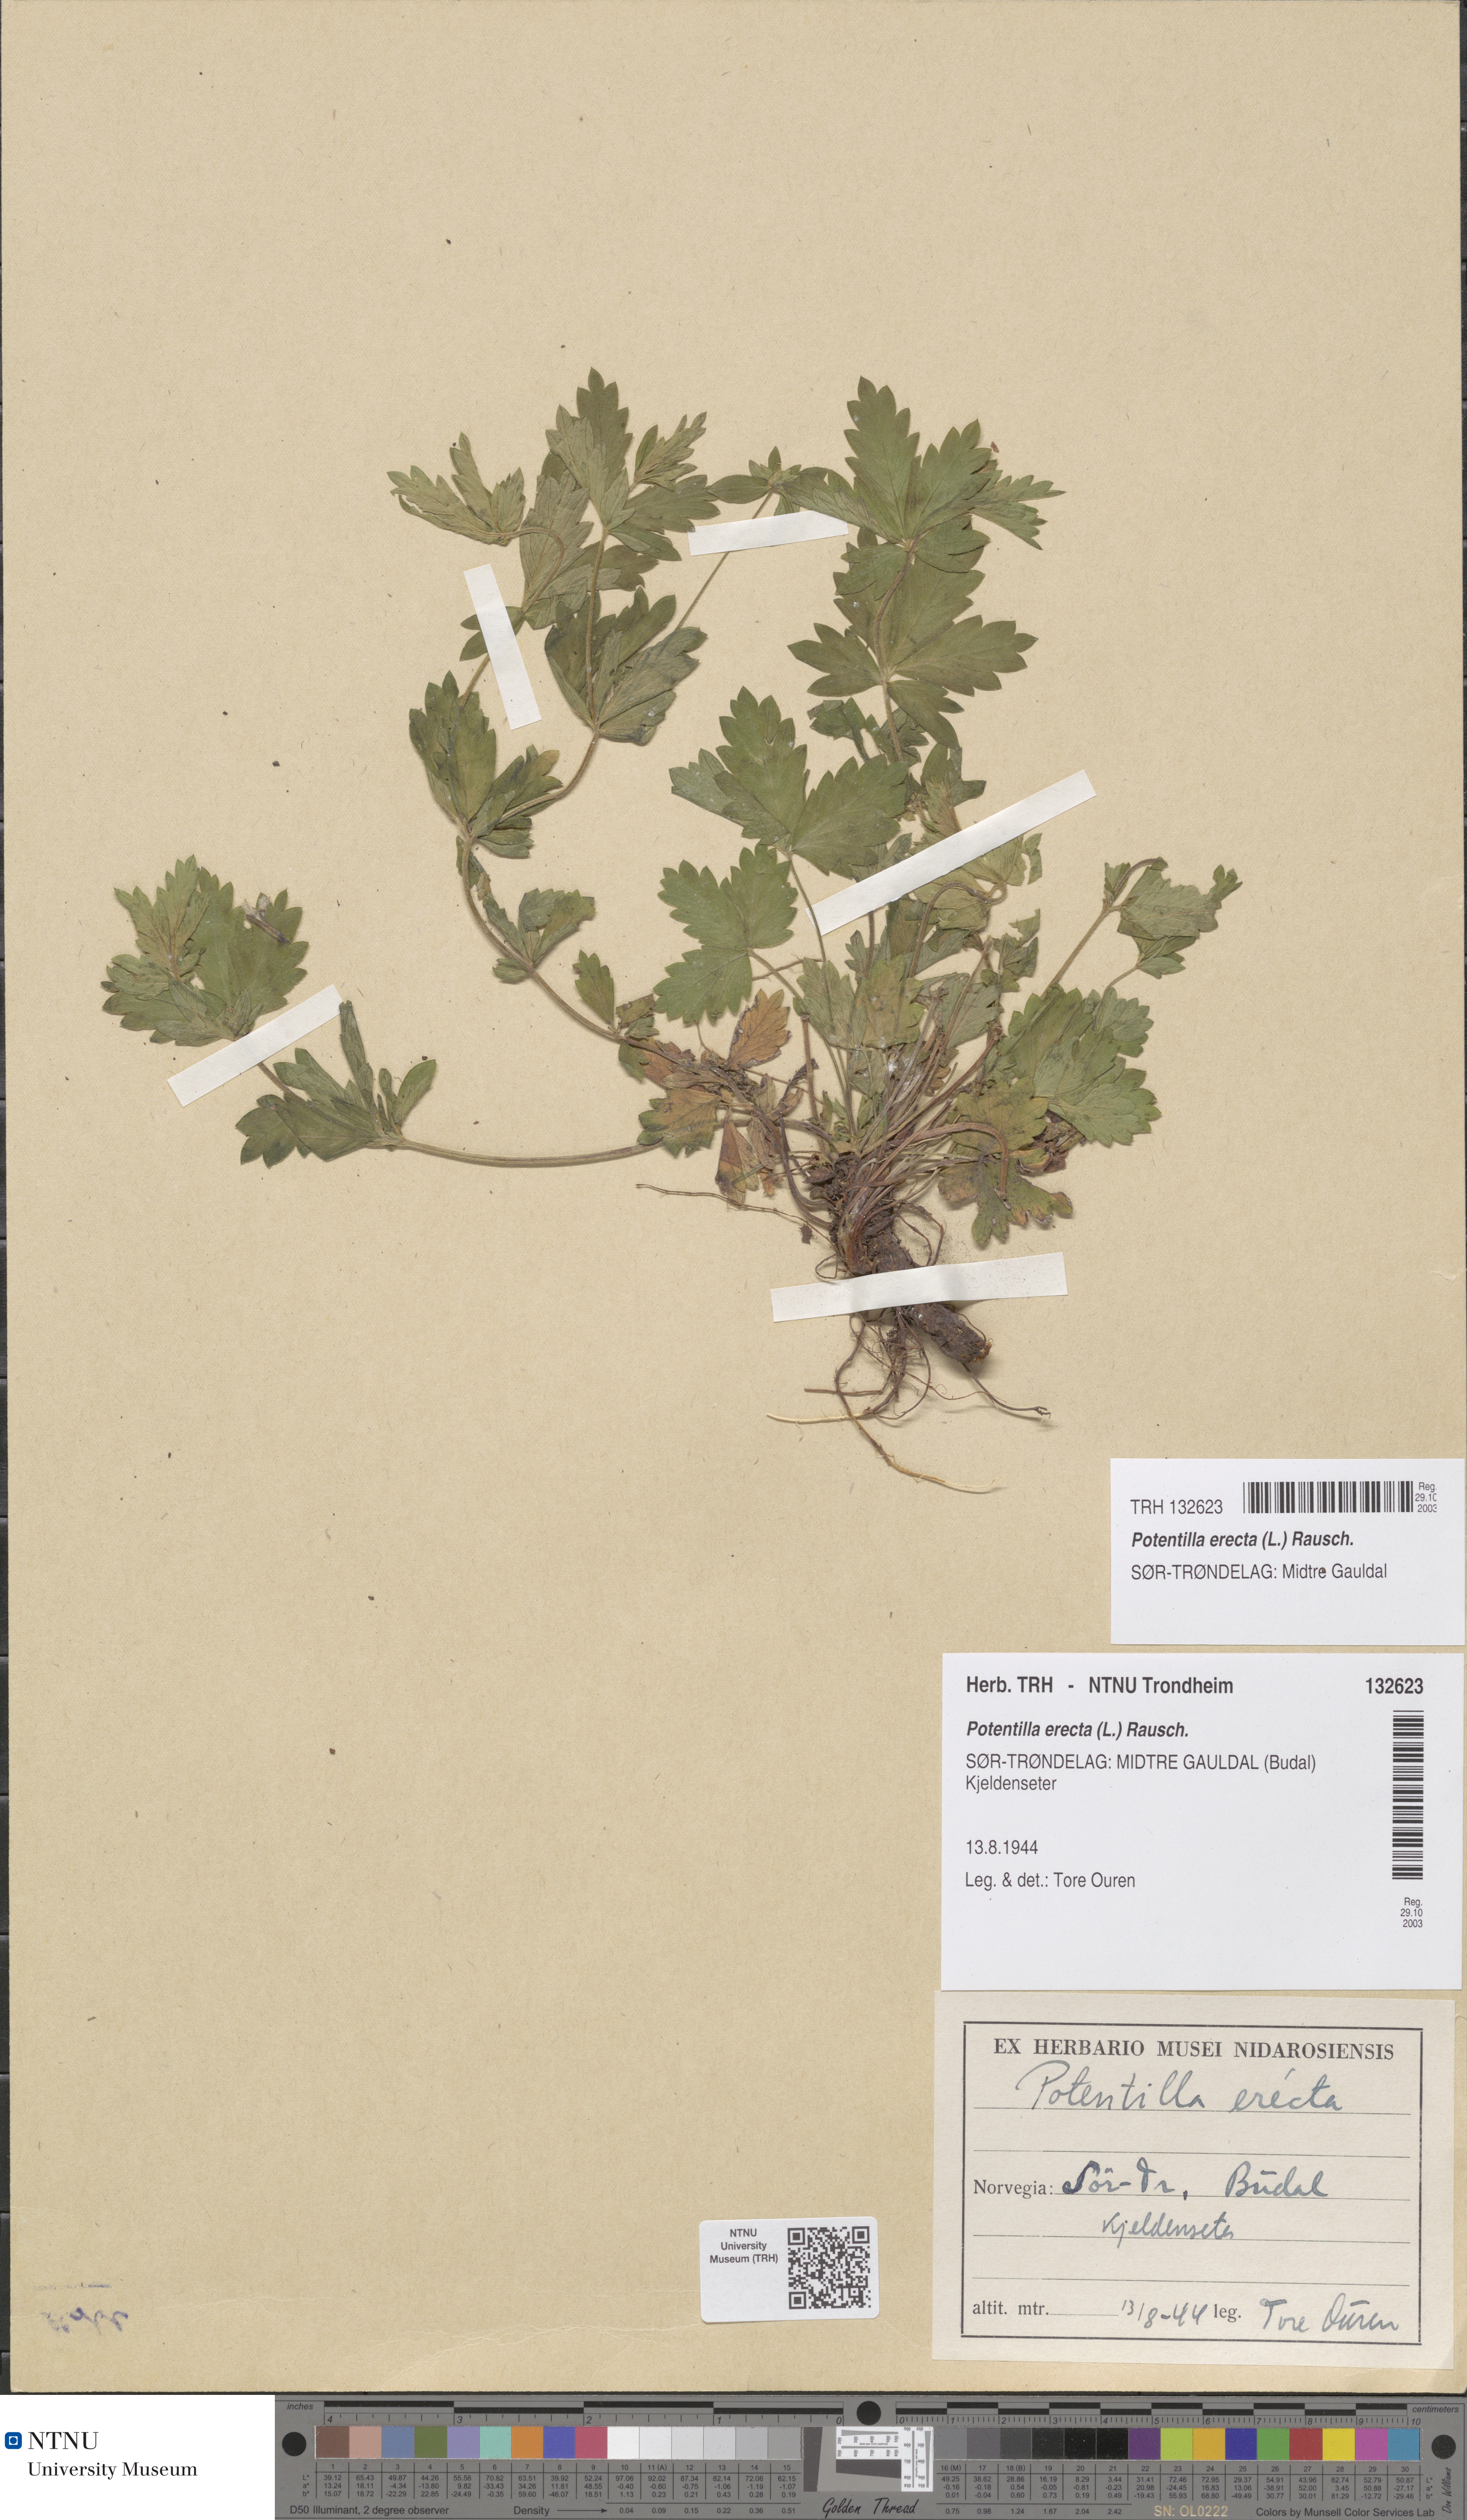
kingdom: Plantae
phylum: Tracheophyta
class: Magnoliopsida
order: Rosales
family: Rosaceae
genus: Potentilla
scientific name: Potentilla erecta
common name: Tormentil
